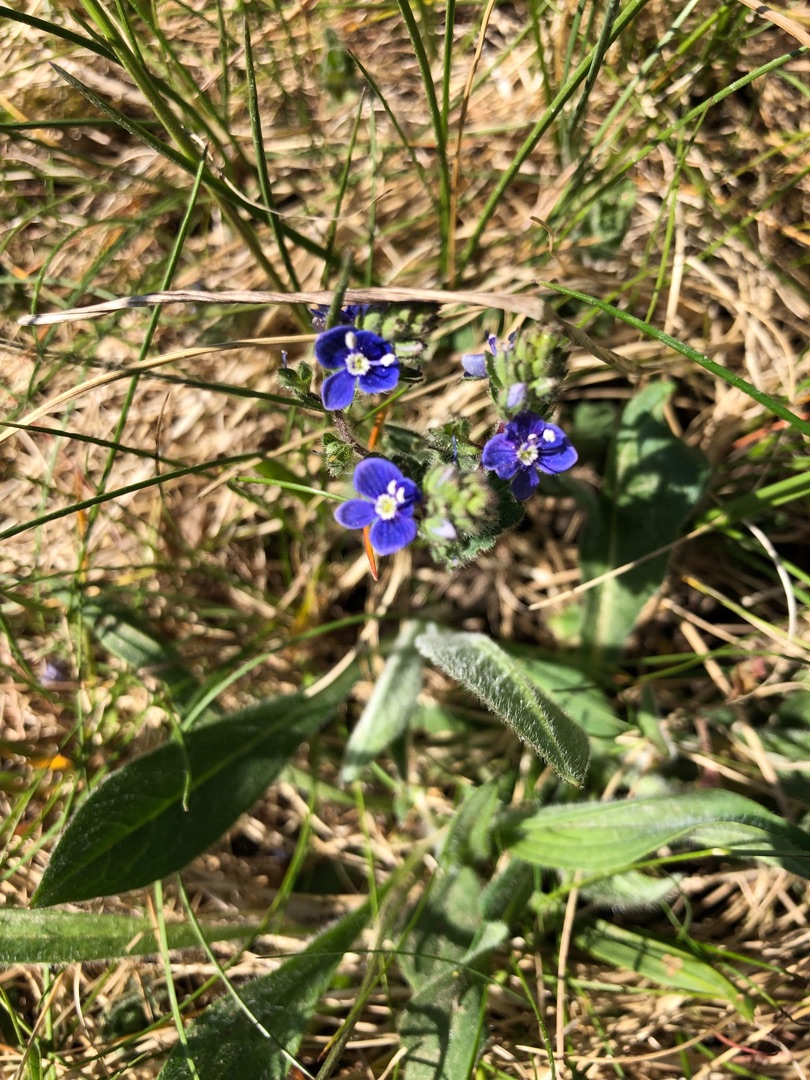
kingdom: Plantae
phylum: Tracheophyta
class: Magnoliopsida
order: Lamiales
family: Plantaginaceae
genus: Veronica
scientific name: Veronica chamaedrys
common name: Tveskægget ærenpris
